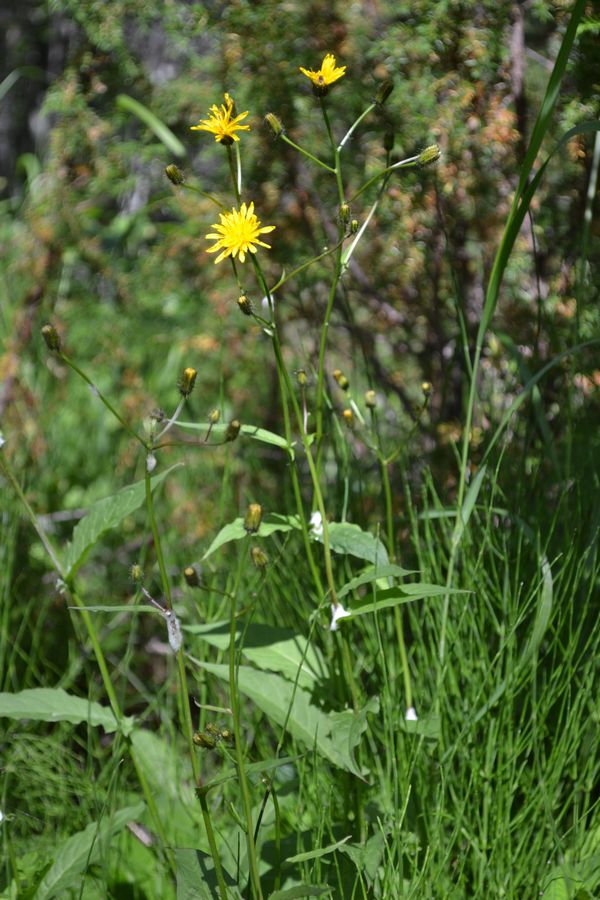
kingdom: Plantae
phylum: Tracheophyta
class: Magnoliopsida
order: Asterales
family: Asteraceae
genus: Crepis
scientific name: Crepis paludosa
